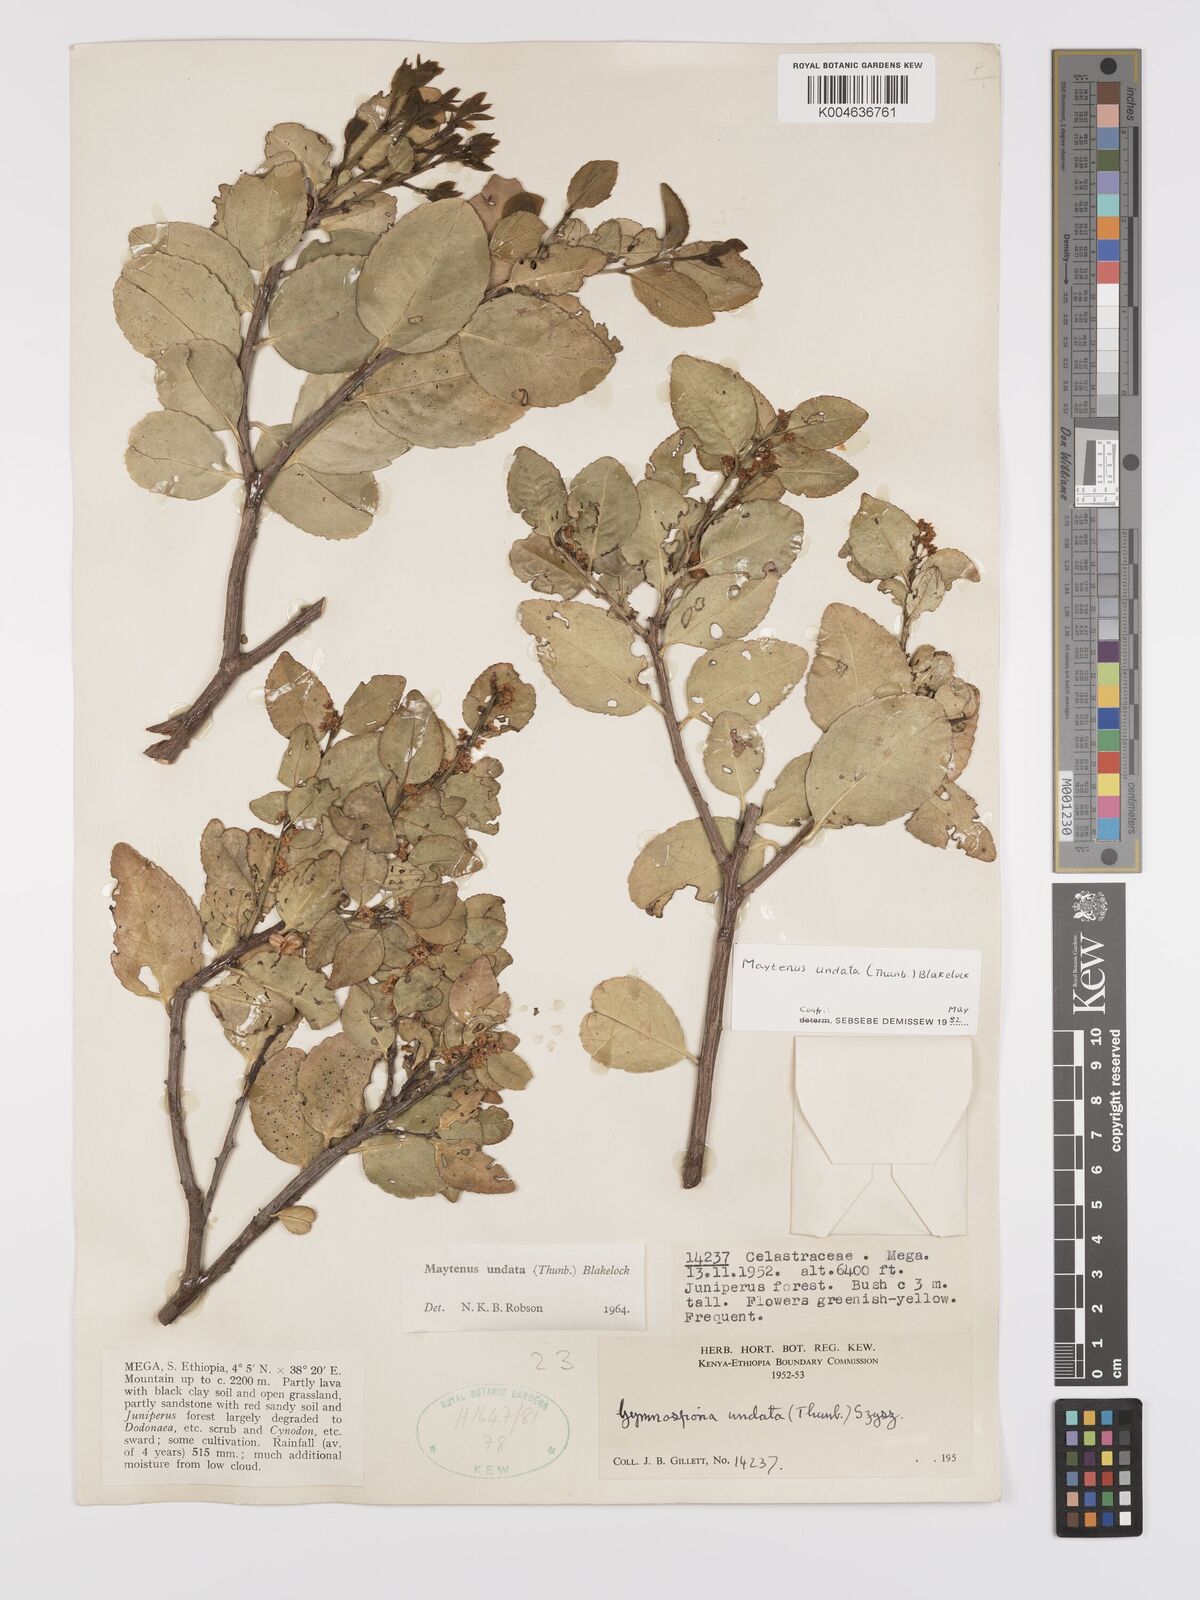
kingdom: Plantae
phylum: Tracheophyta
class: Magnoliopsida
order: Celastrales
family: Celastraceae
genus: Gymnosporia
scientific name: Gymnosporia undata
